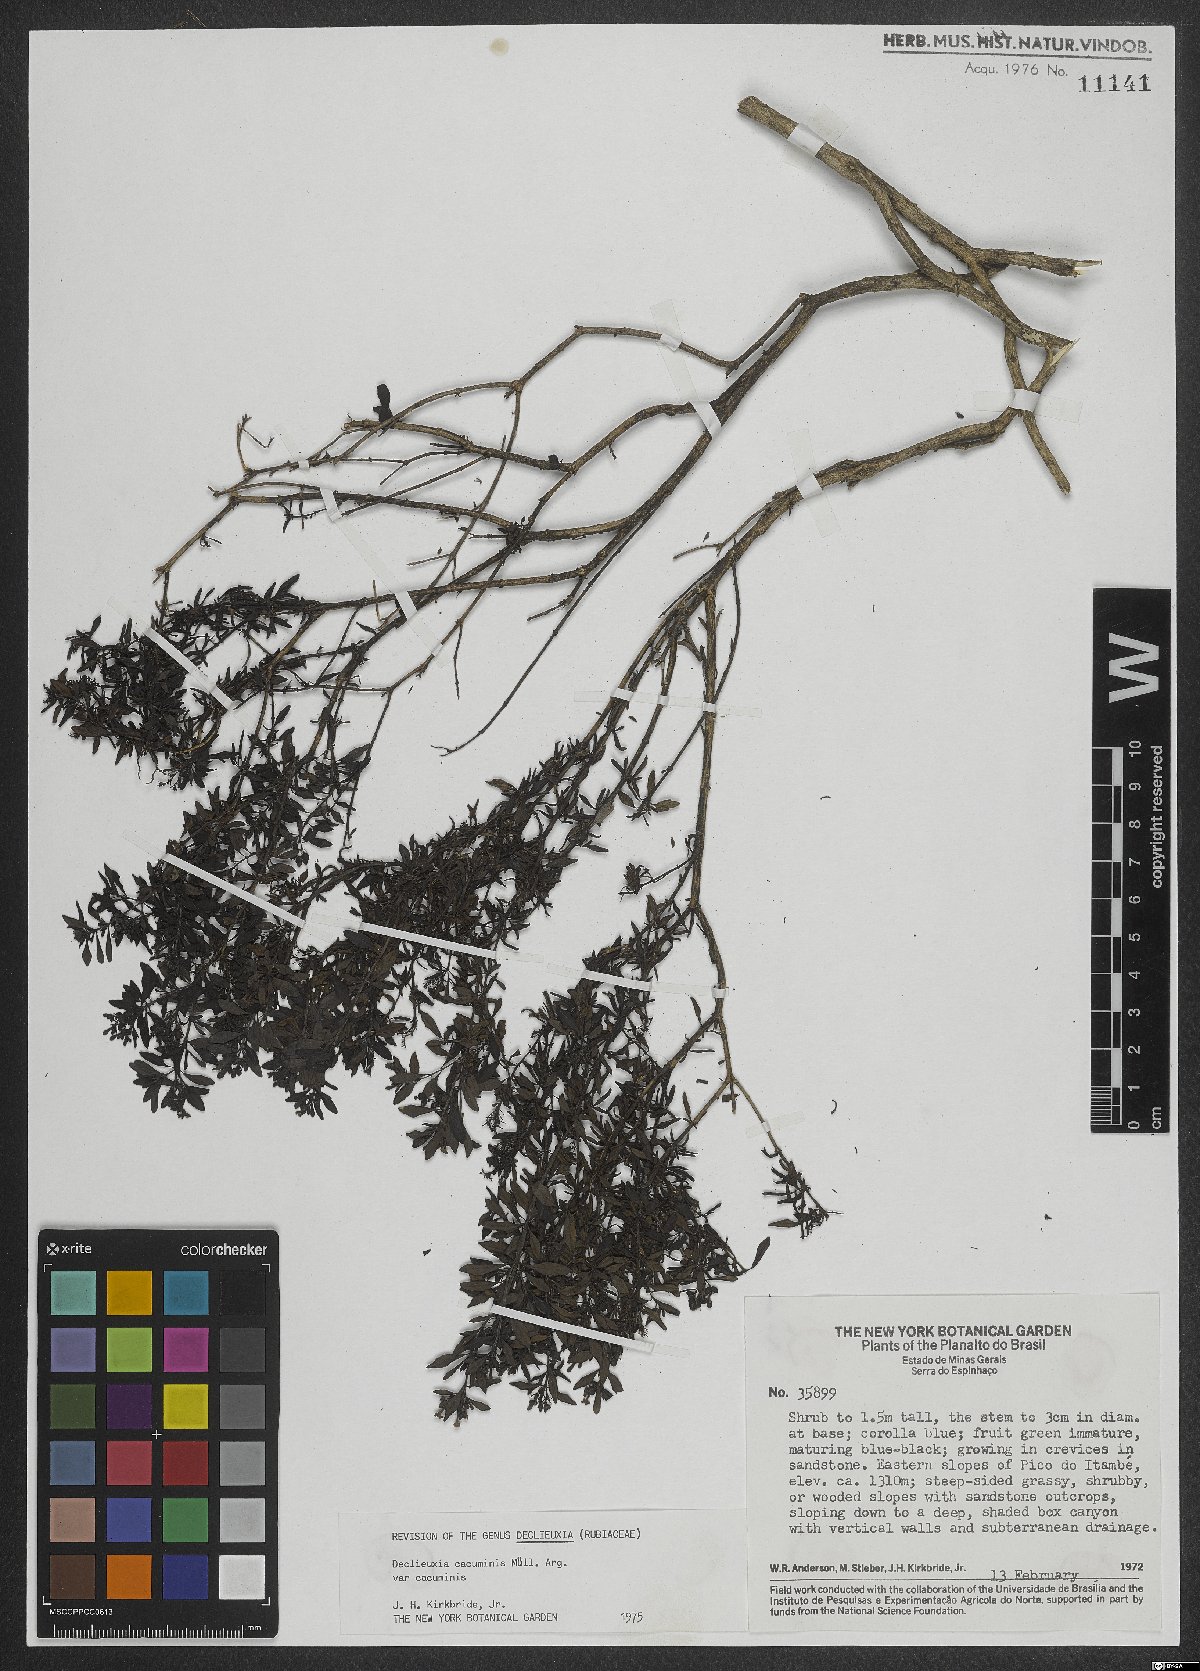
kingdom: Plantae
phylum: Tracheophyta
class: Magnoliopsida
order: Gentianales
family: Rubiaceae
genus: Declieuxia
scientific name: Declieuxia cacuminis
